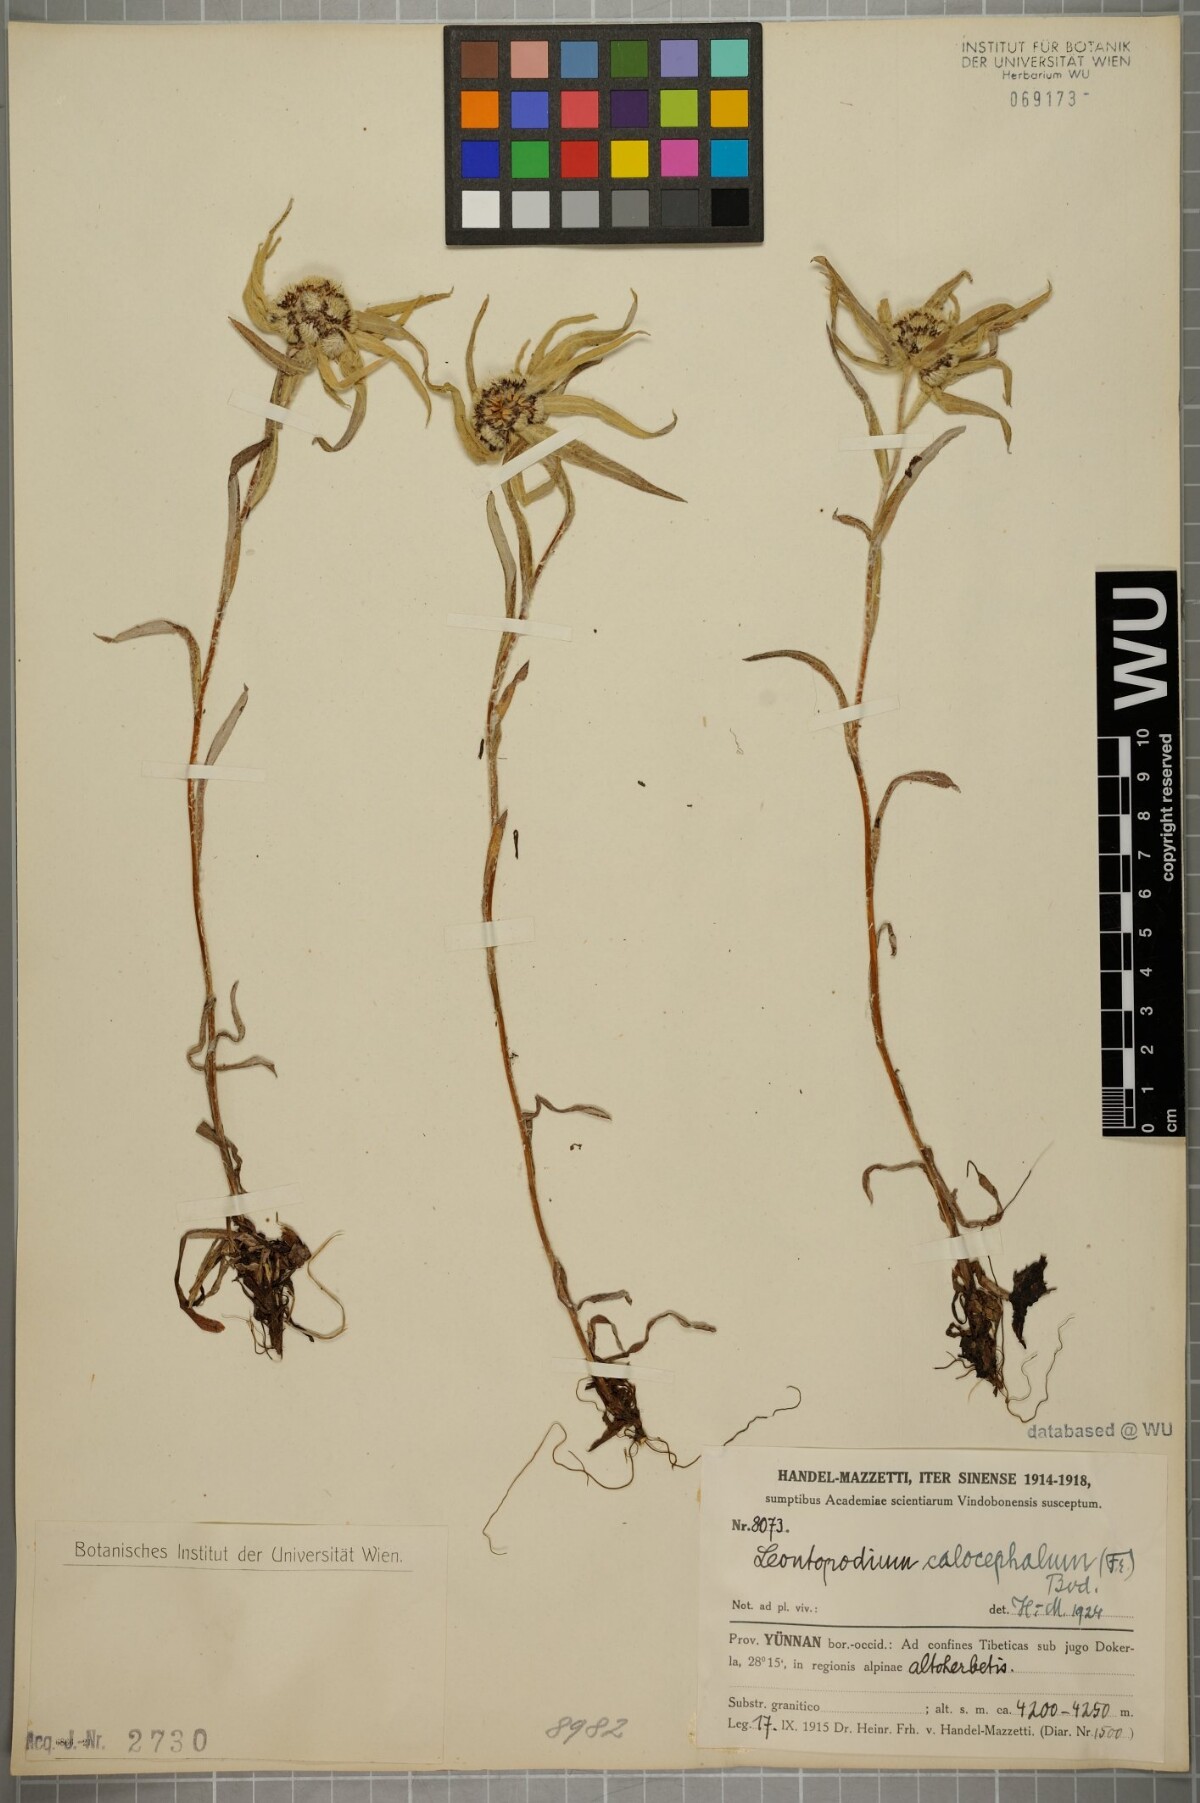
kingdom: Plantae
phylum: Tracheophyta
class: Magnoliopsida
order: Asterales
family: Asteraceae
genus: Leontopodium
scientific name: Leontopodium calocephalum
